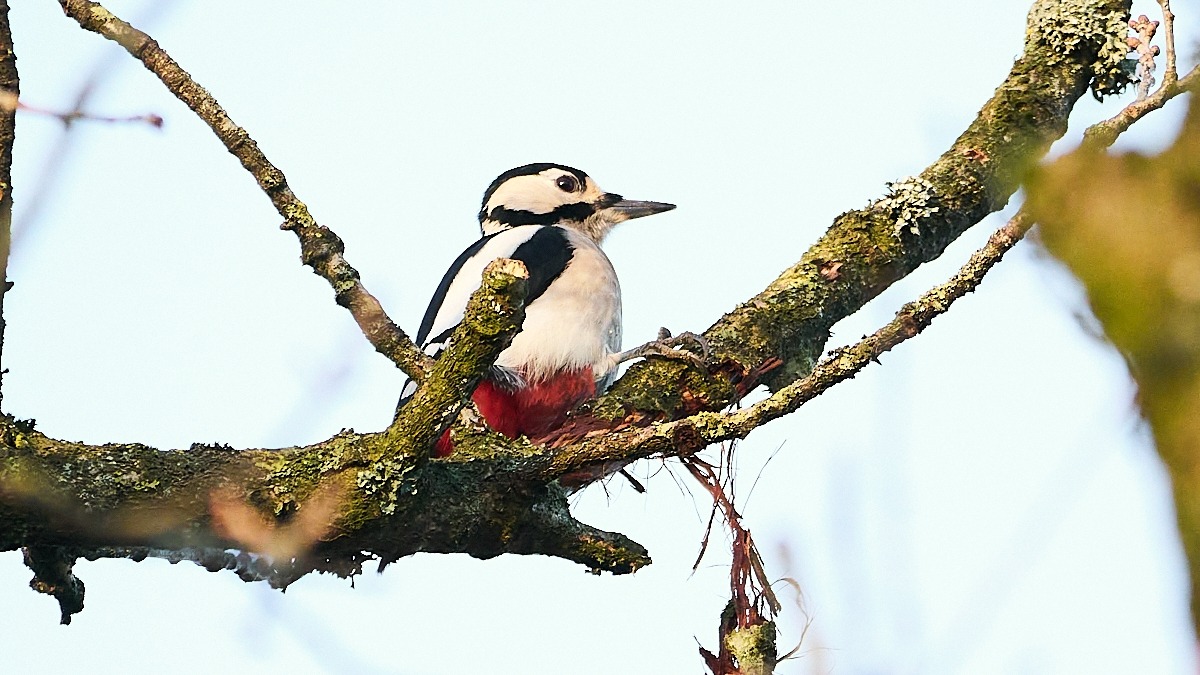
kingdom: Animalia
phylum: Chordata
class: Aves
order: Piciformes
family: Picidae
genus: Dendrocopos
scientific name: Dendrocopos major
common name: Stor flagspætte
